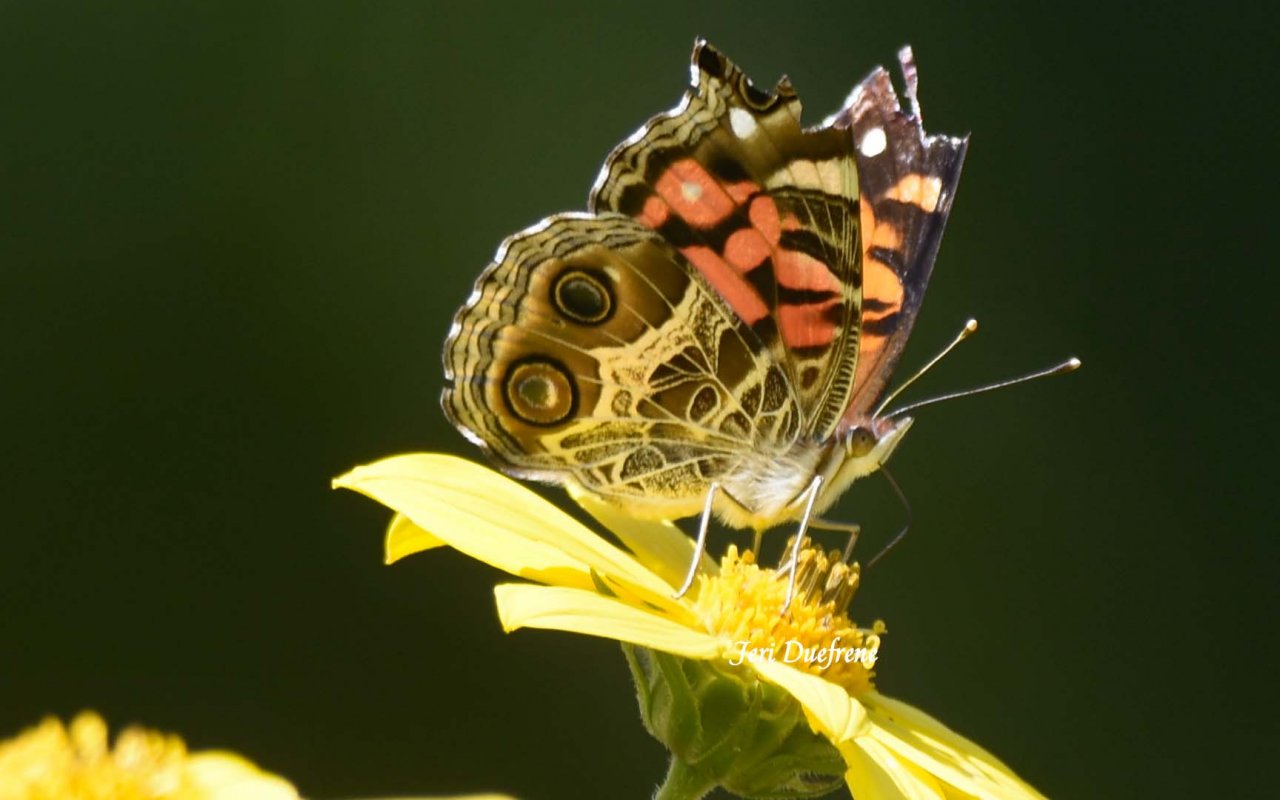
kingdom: Animalia
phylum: Arthropoda
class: Insecta
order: Lepidoptera
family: Nymphalidae
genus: Vanessa
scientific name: Vanessa virginiensis
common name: American Lady
